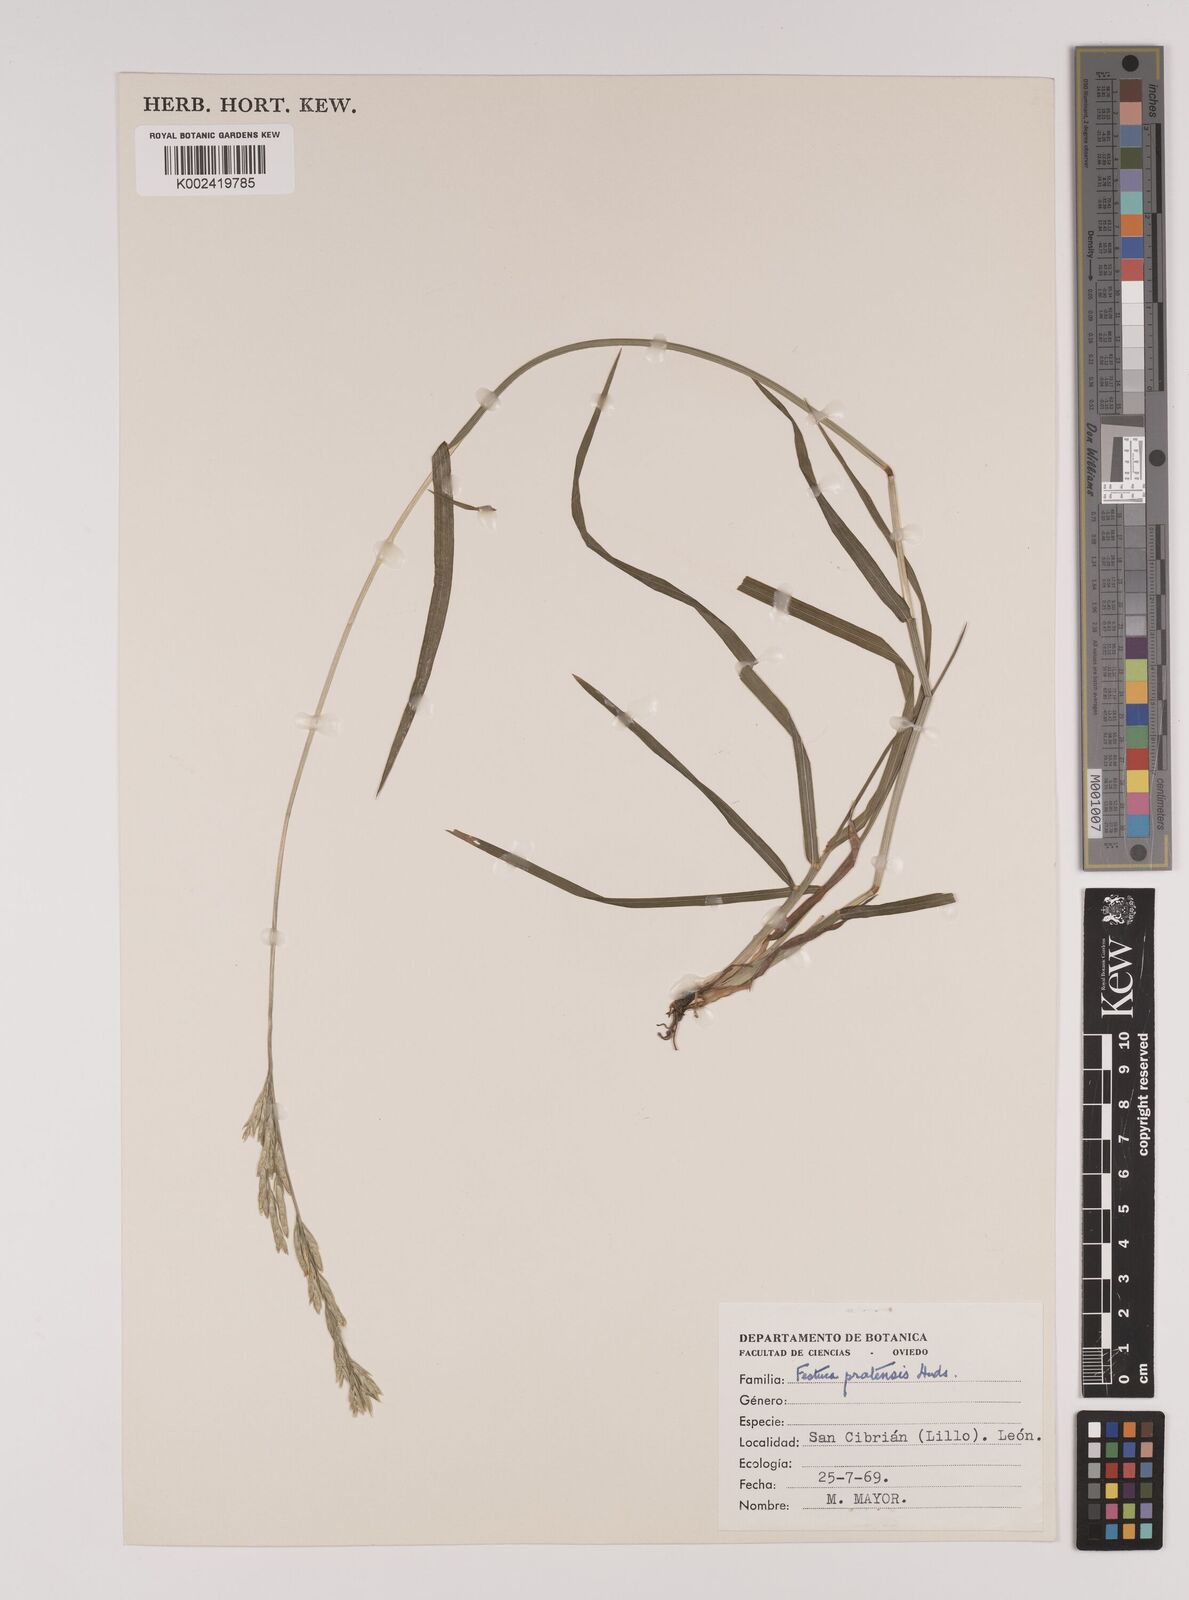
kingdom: Plantae
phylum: Tracheophyta
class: Liliopsida
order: Poales
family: Poaceae
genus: Festuca
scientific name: Festuca
